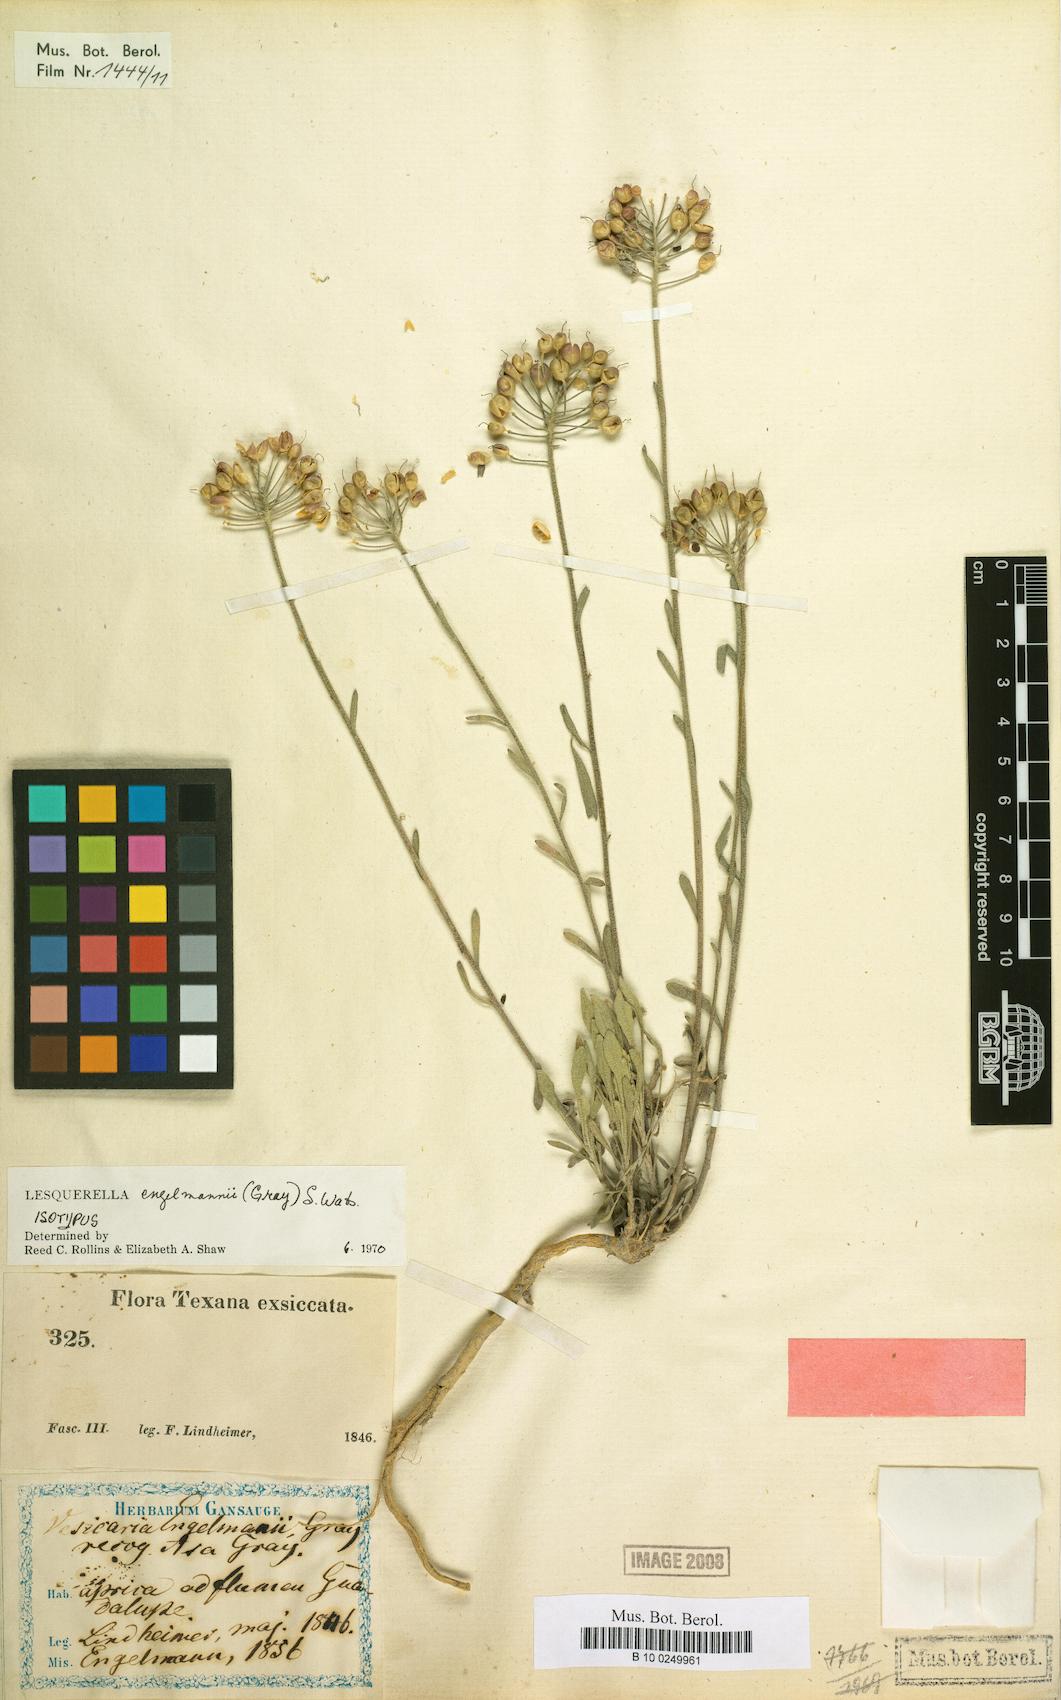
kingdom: Plantae
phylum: Tracheophyta
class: Magnoliopsida
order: Brassicales
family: Brassicaceae
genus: Physaria
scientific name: Physaria engelmannii
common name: Engelmann's bladderpod
